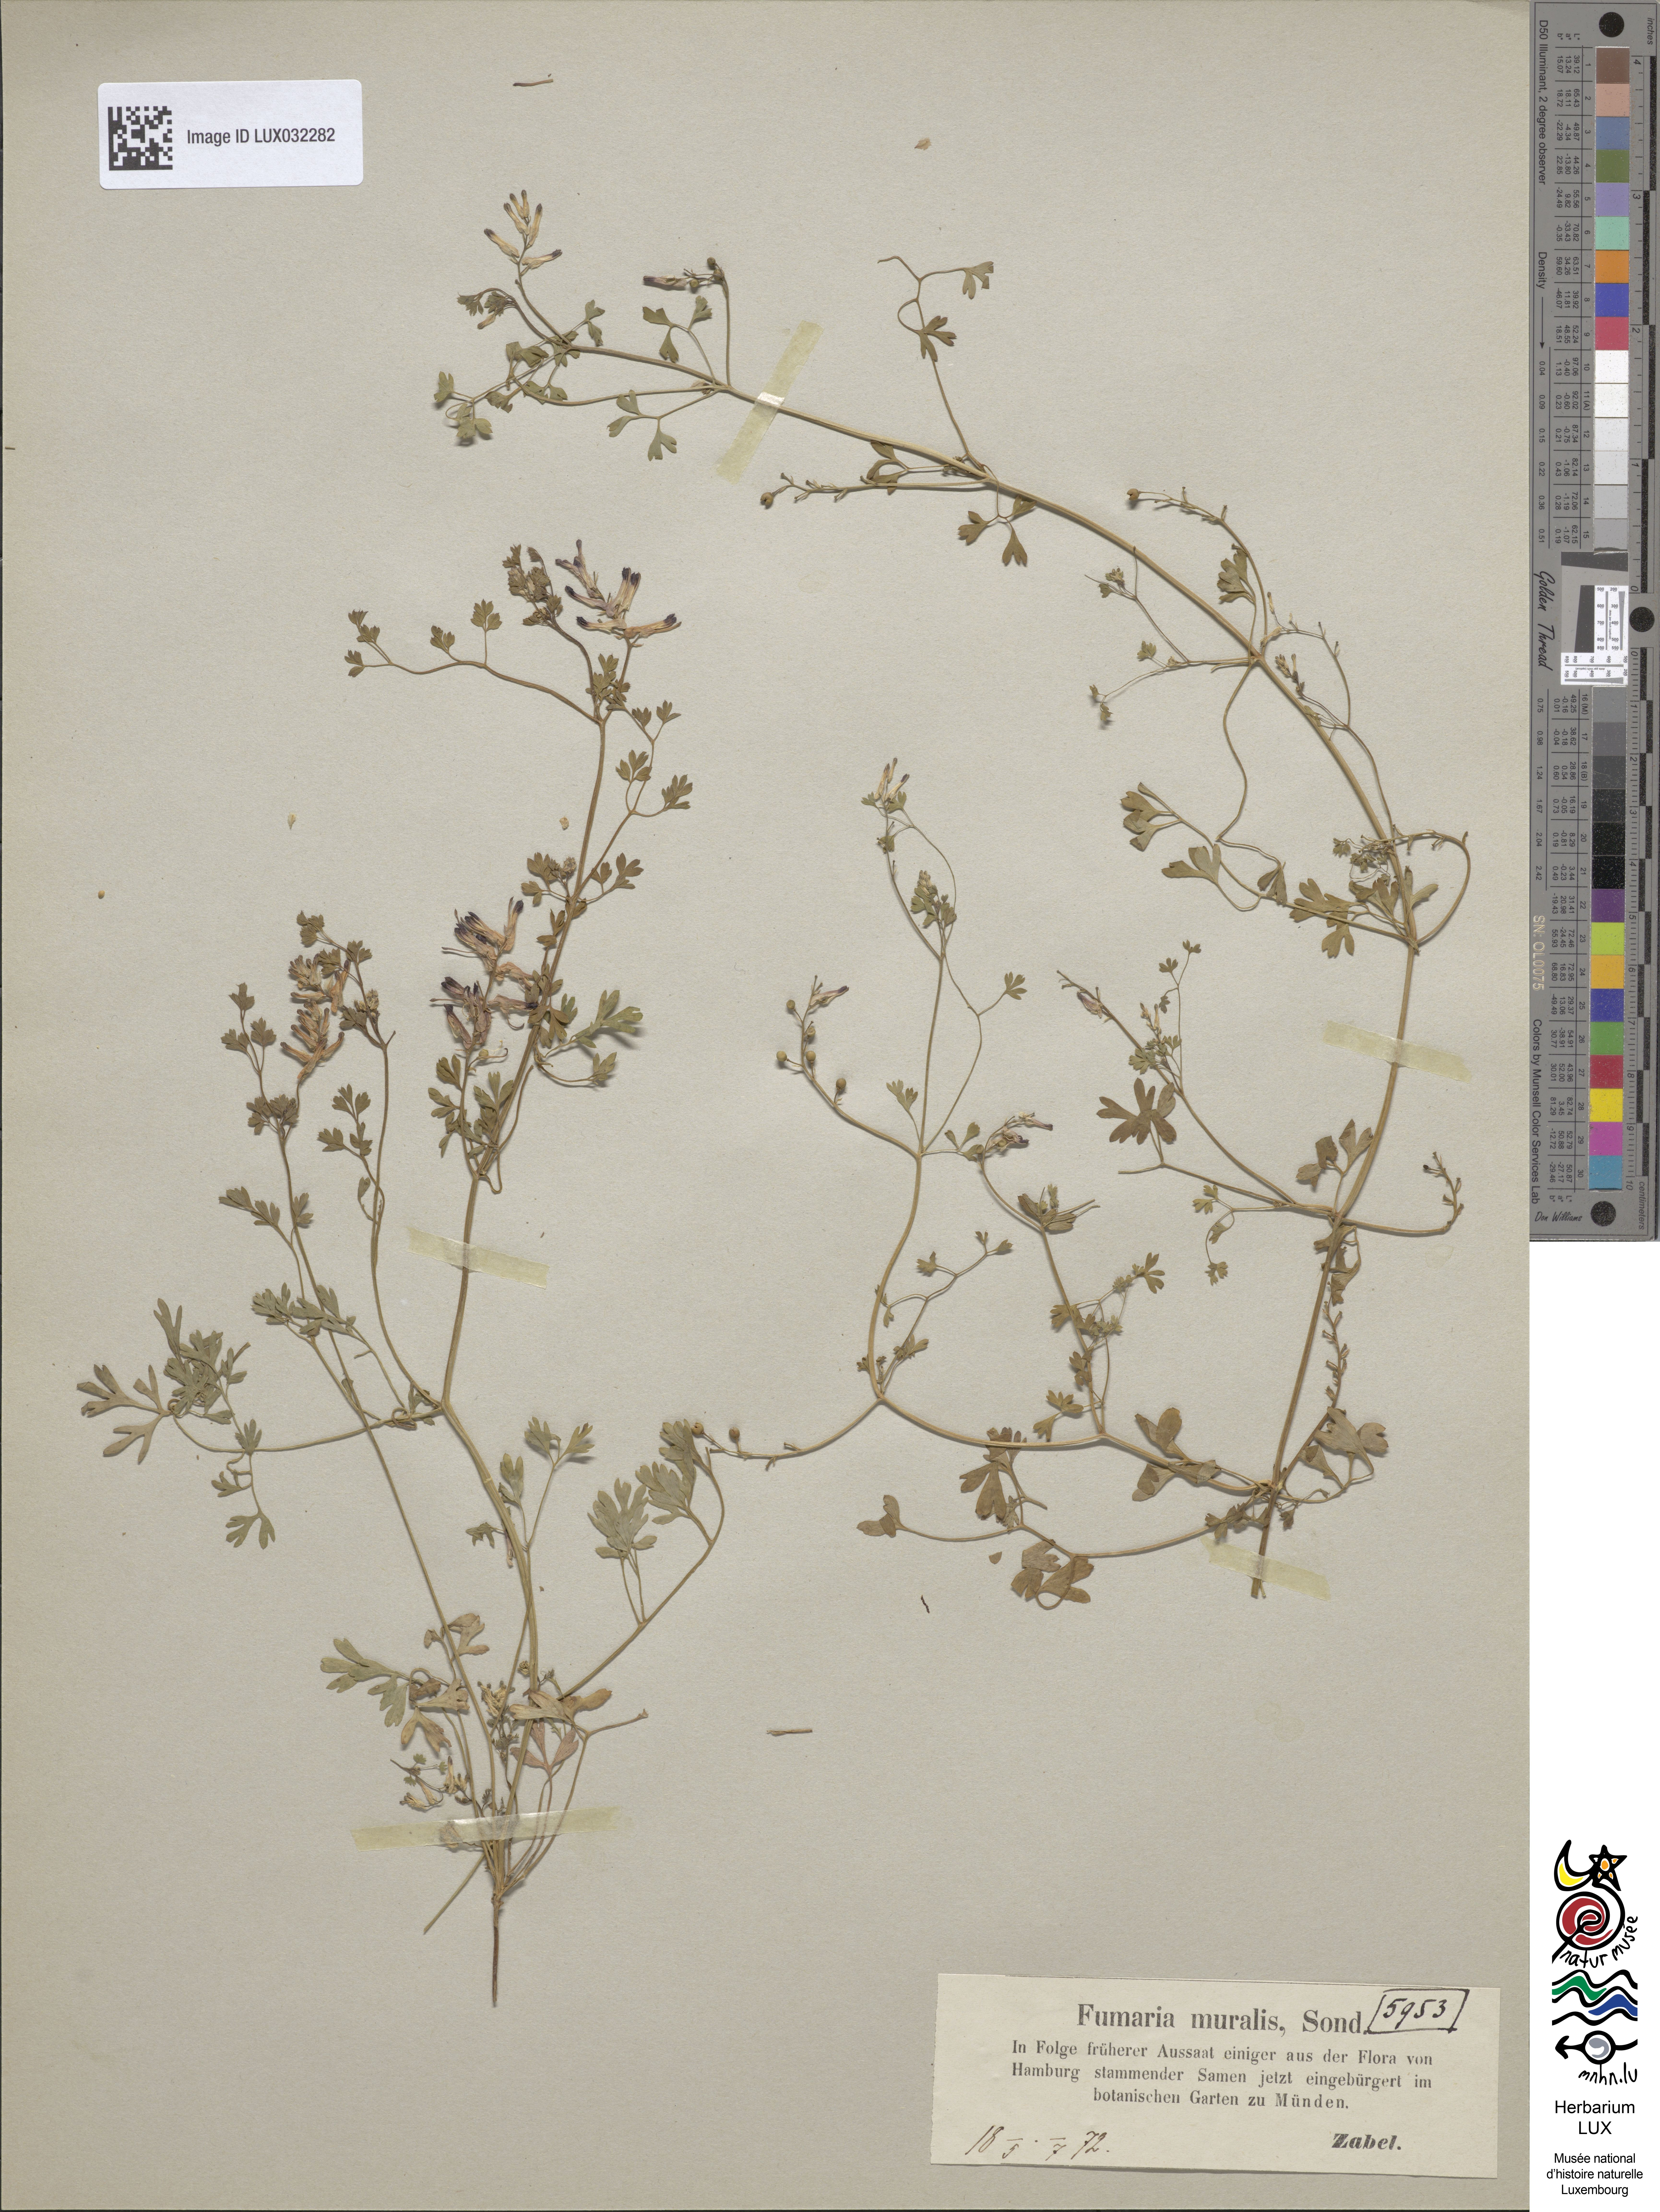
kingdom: Plantae
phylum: Tracheophyta
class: Magnoliopsida
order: Ranunculales
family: Papaveraceae
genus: Fumaria
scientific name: Fumaria muralis
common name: Common ramping-fumitory
